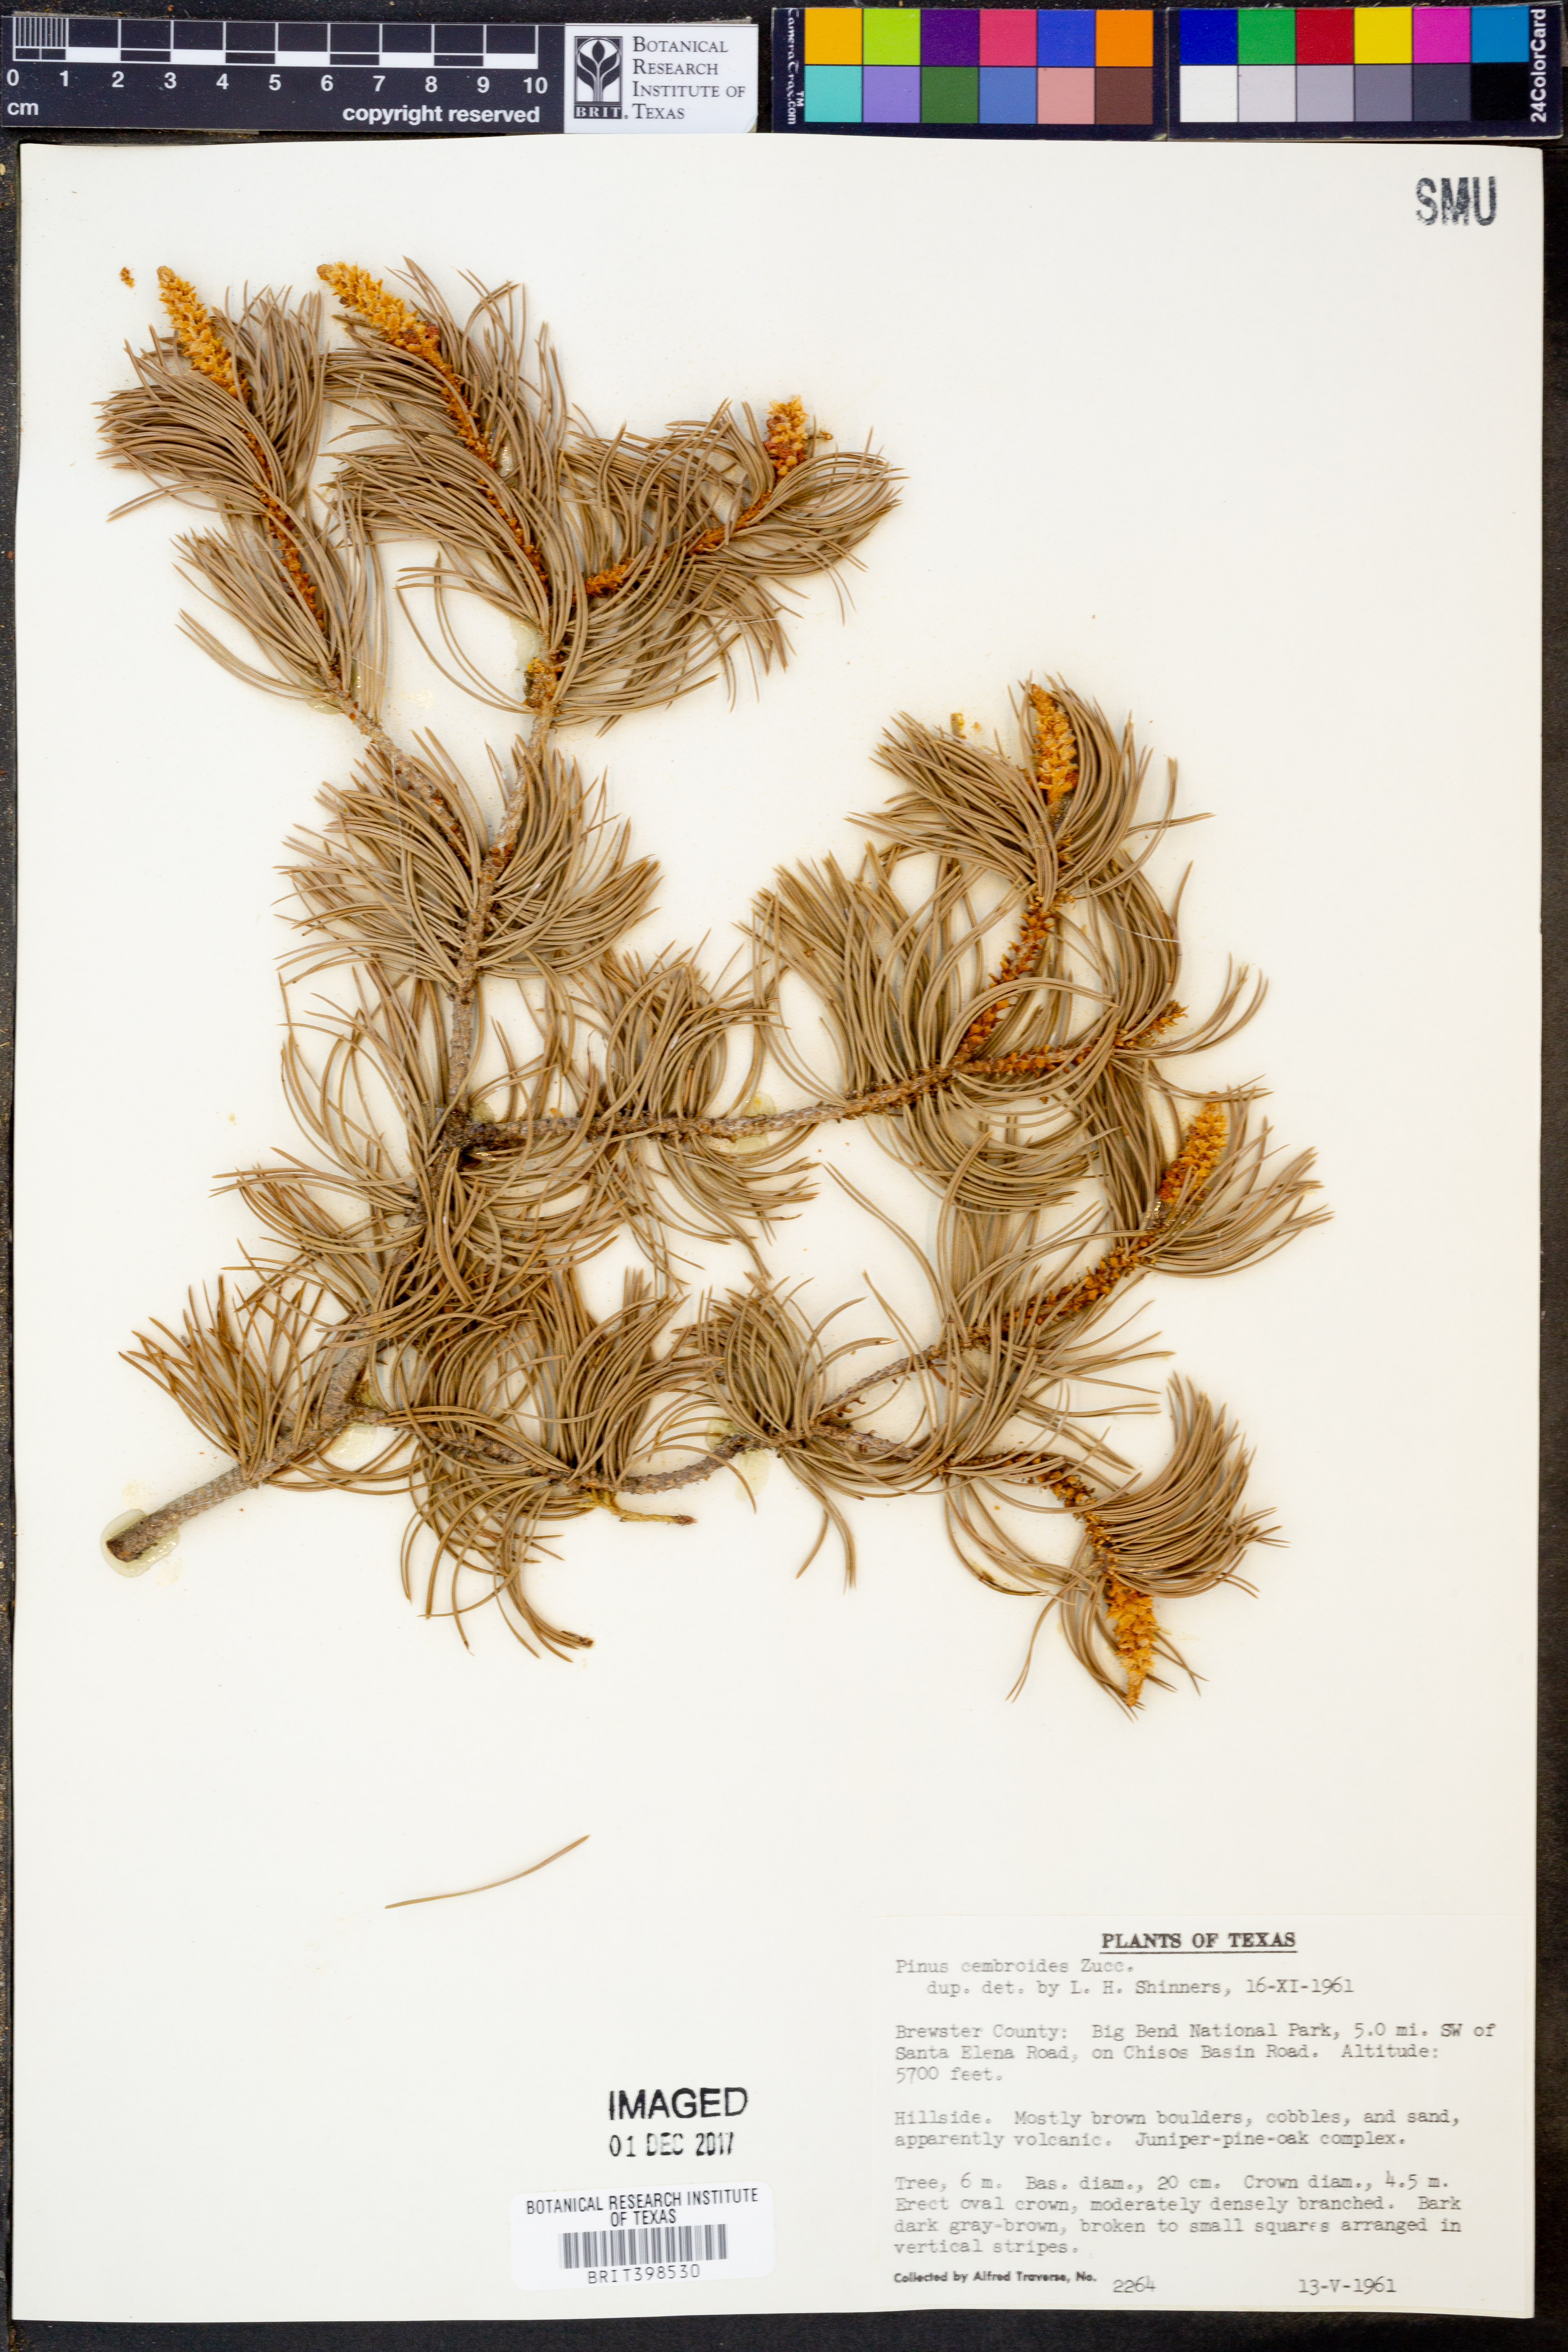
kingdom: Plantae
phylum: Tracheophyta
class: Pinopsida
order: Pinales
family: Pinaceae
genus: Pinus
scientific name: Pinus cembroides
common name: Mexican nut pine
